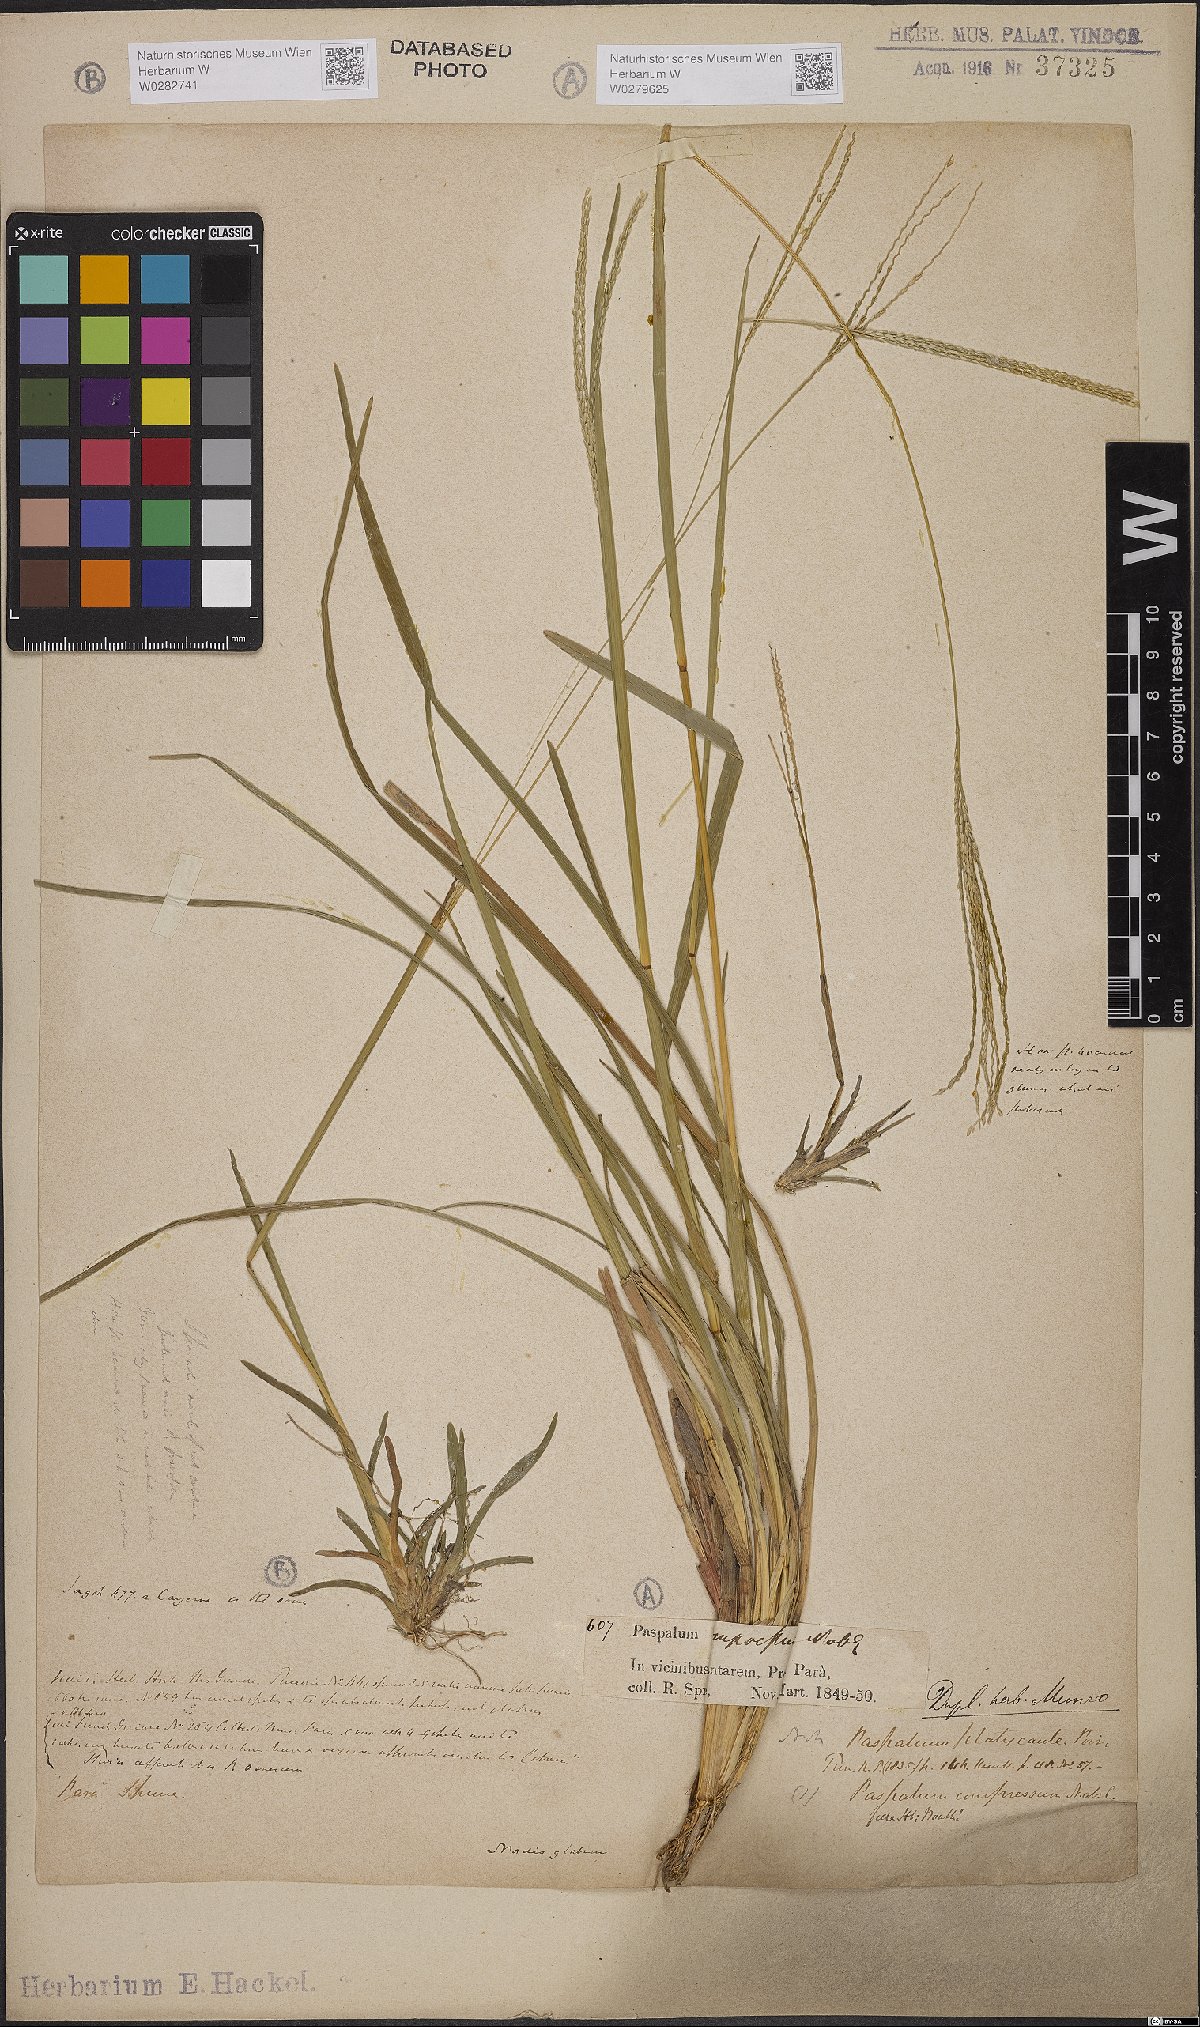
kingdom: Plantae
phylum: Tracheophyta
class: Liliopsida
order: Poales
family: Poaceae
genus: Axonopus
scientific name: Axonopus compressus
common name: American carpet grass
